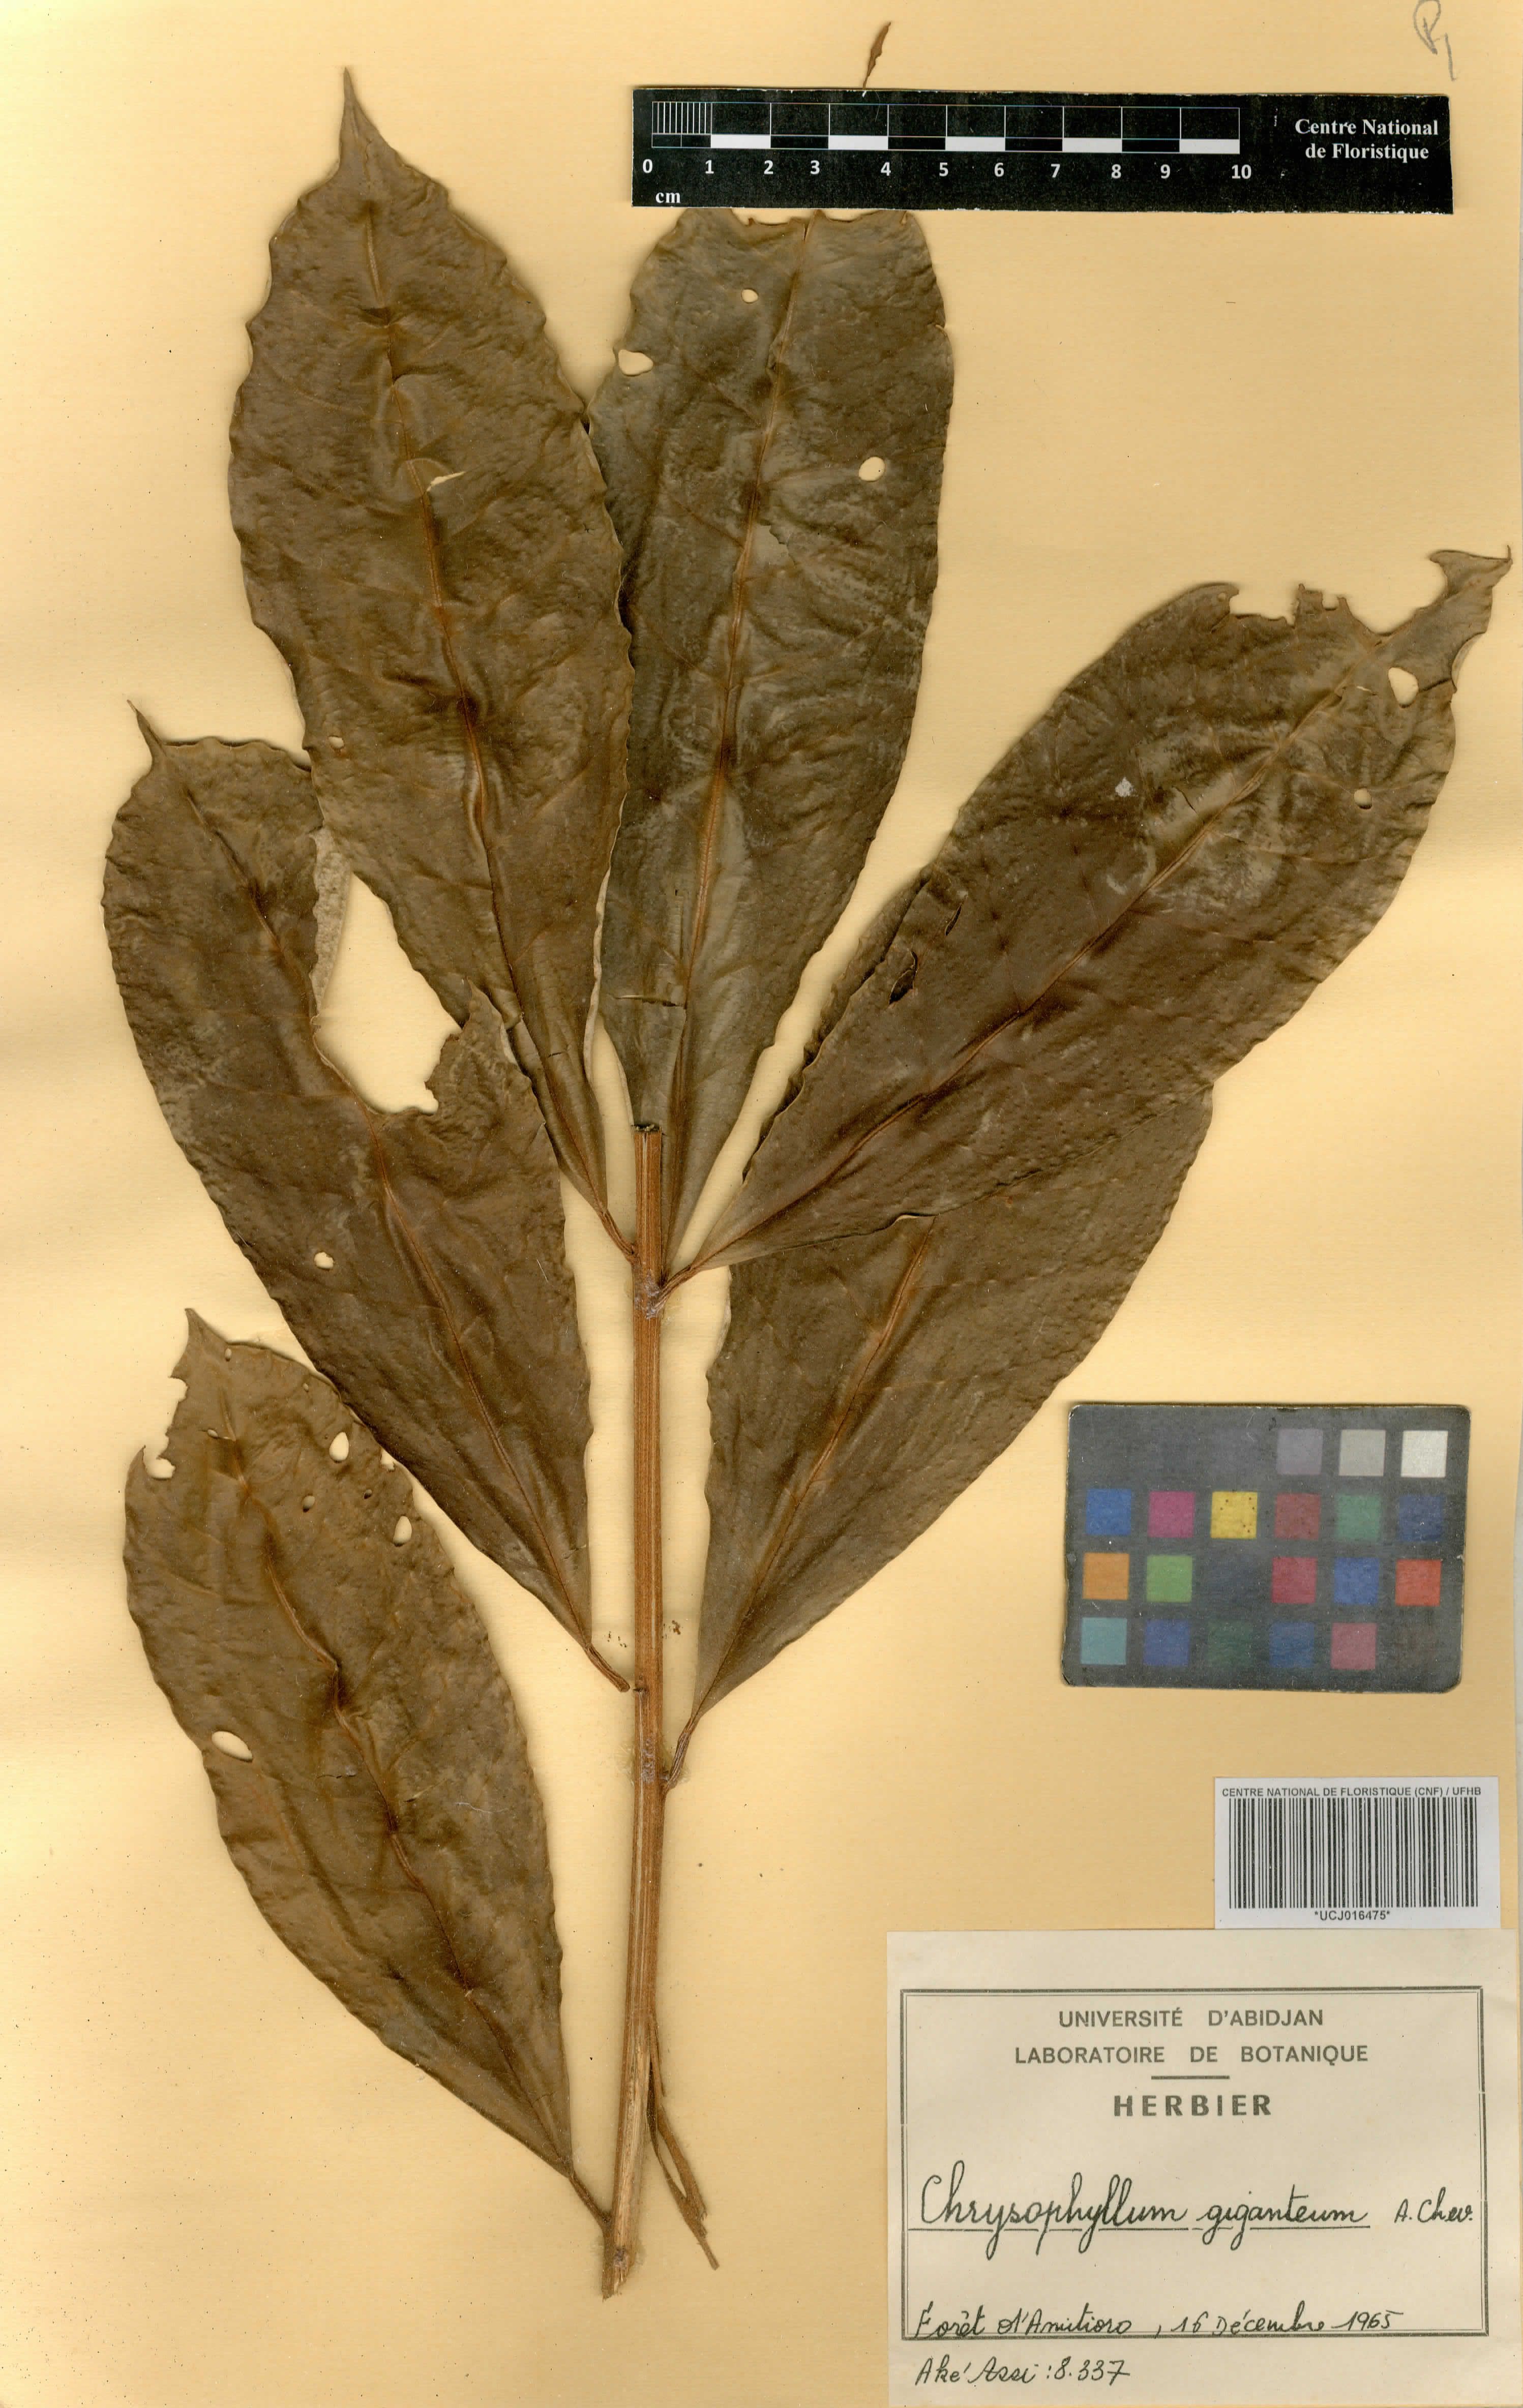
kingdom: Plantae
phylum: Tracheophyta
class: Magnoliopsida
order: Ericales
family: Sapotaceae
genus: Gambeya
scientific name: Gambeya gigantea
